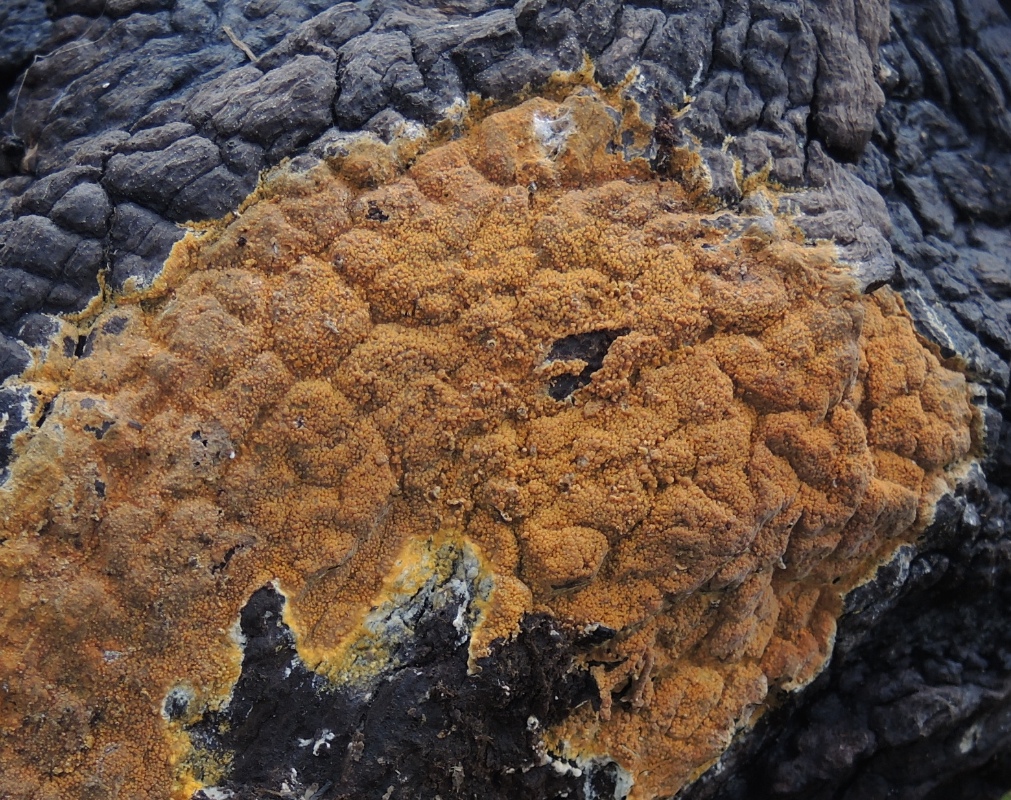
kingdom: Fungi
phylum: Basidiomycota
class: Agaricomycetes
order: Corticiales
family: Corticiaceae
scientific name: Corticiaceae
